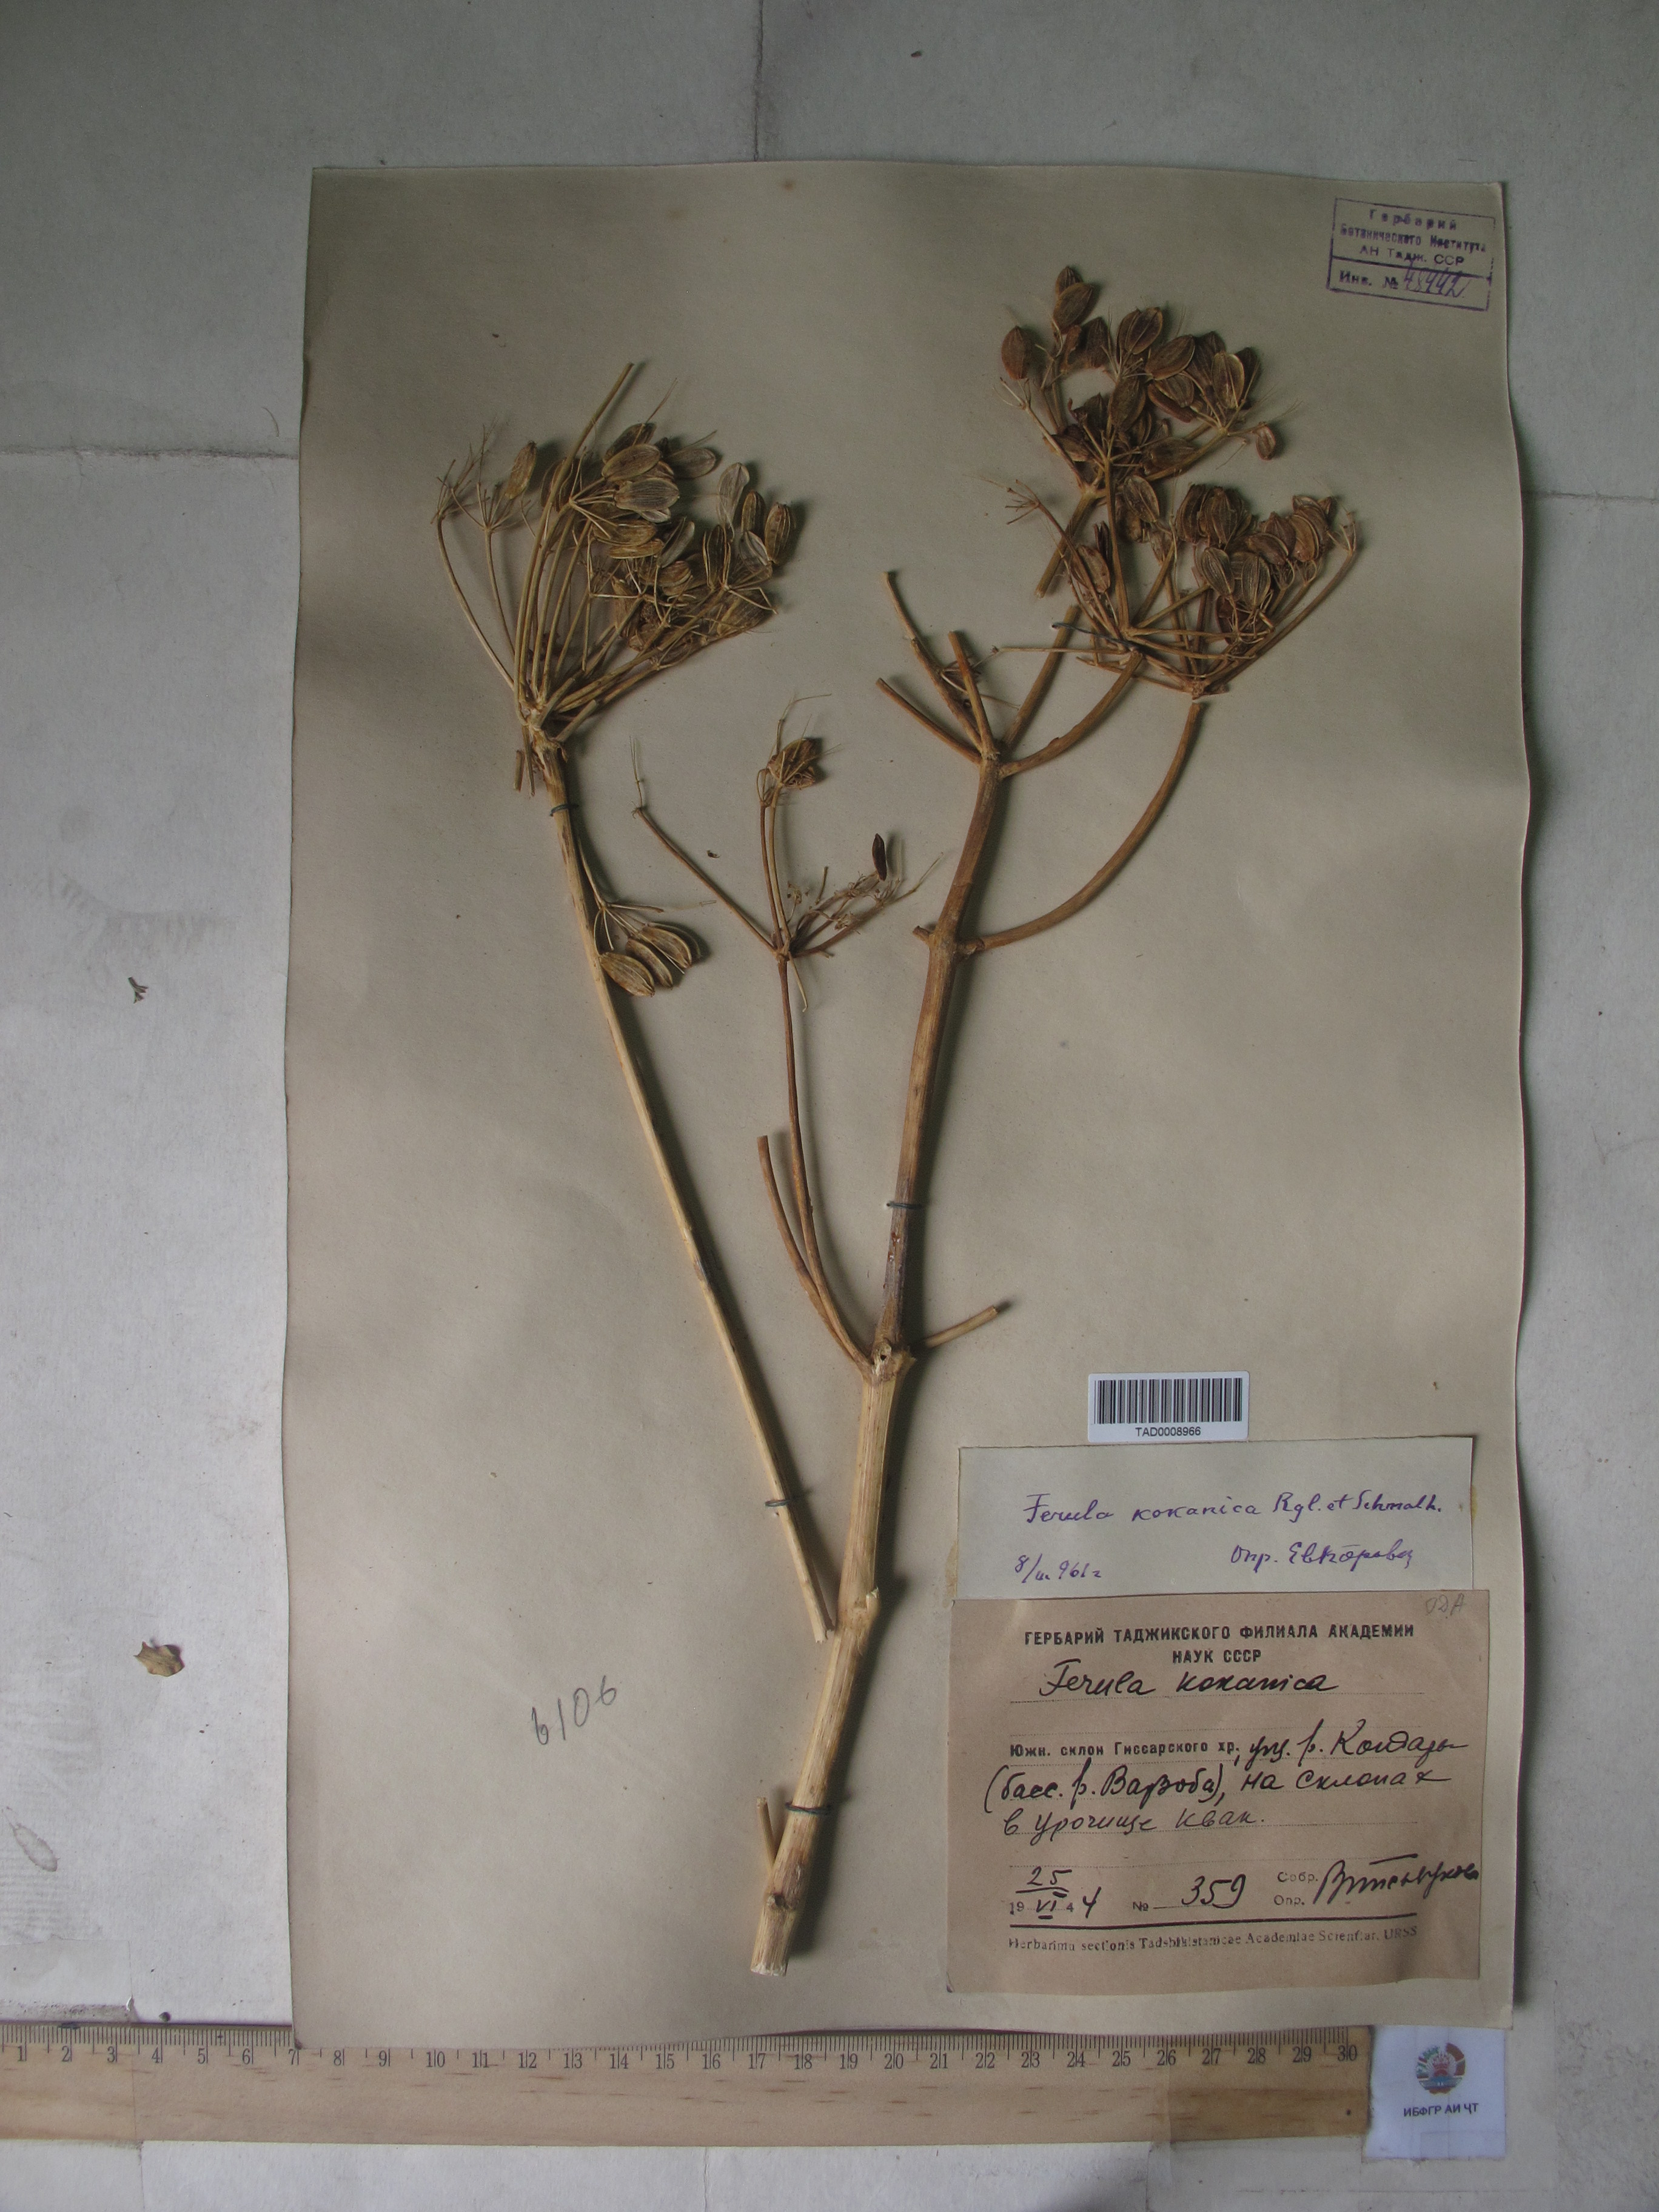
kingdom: Plantae
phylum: Tracheophyta
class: Magnoliopsida
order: Apiales
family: Apiaceae
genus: Ferula
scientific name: Ferula kokanica
